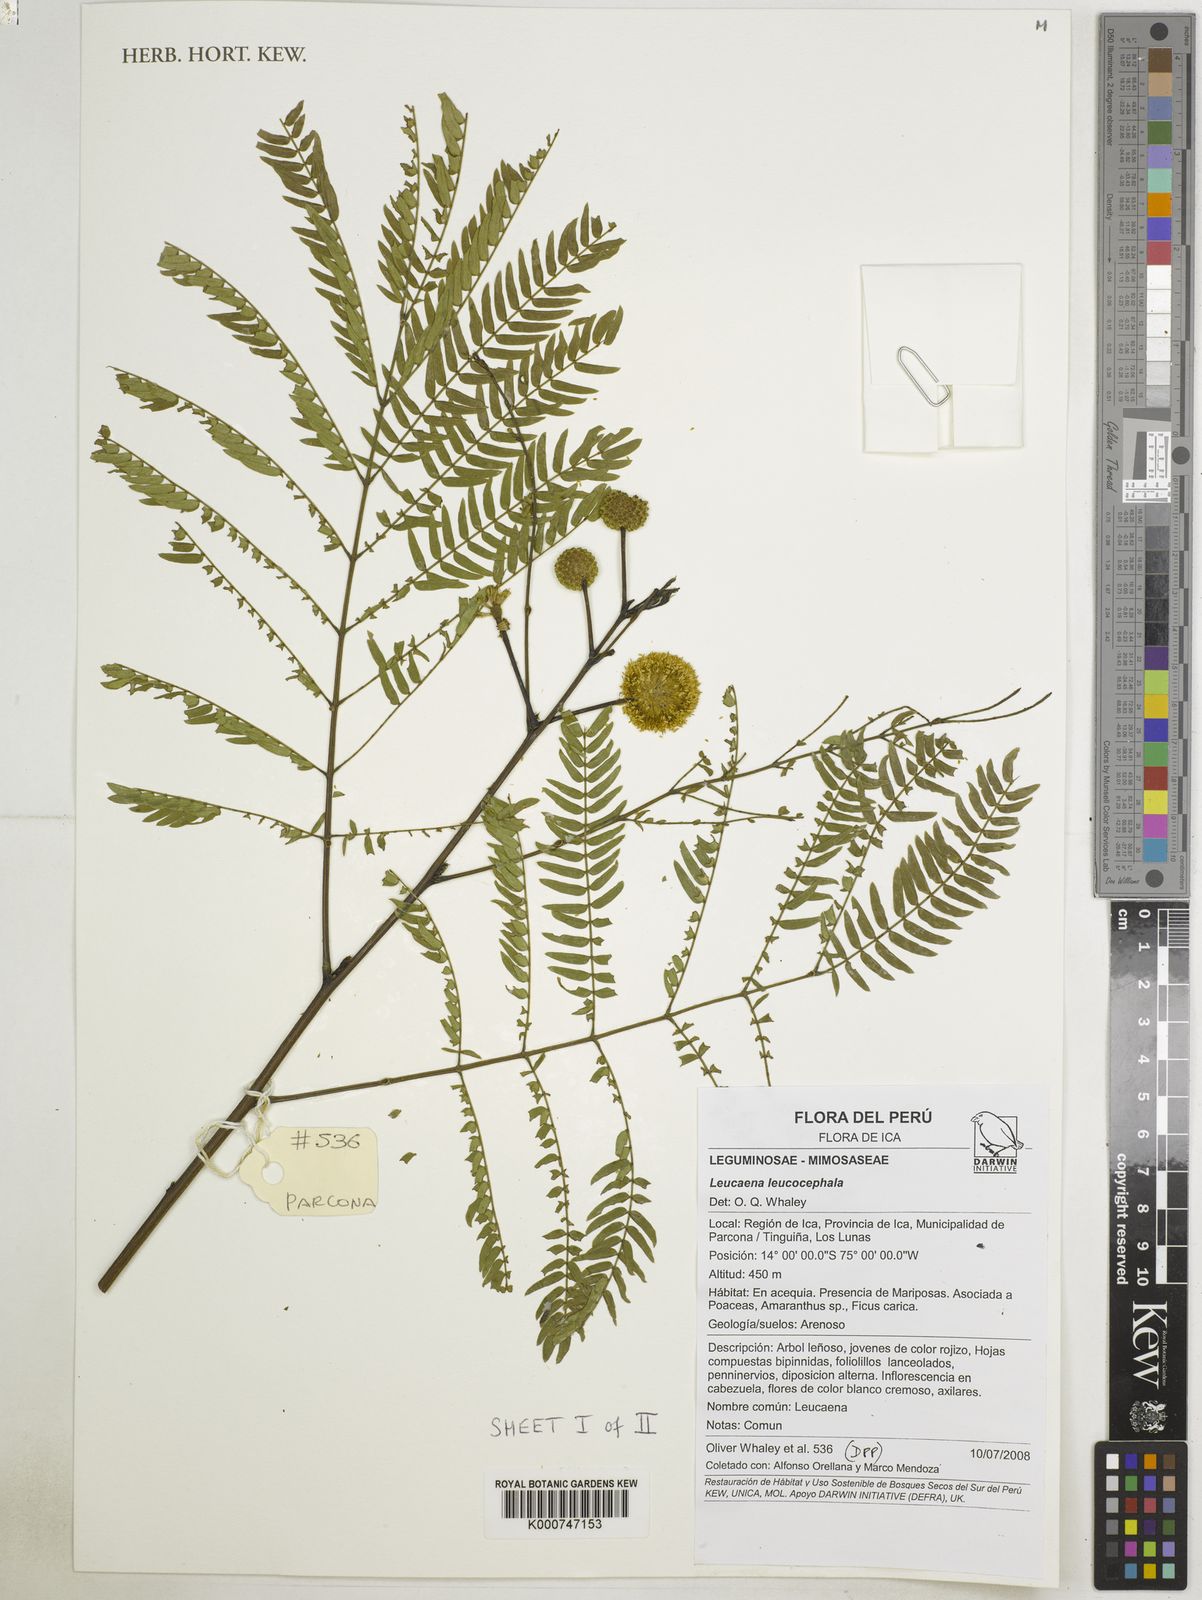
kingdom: Plantae
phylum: Tracheophyta
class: Magnoliopsida
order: Fabales
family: Fabaceae
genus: Leucaena
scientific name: Leucaena leucocephala
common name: White leadtree
